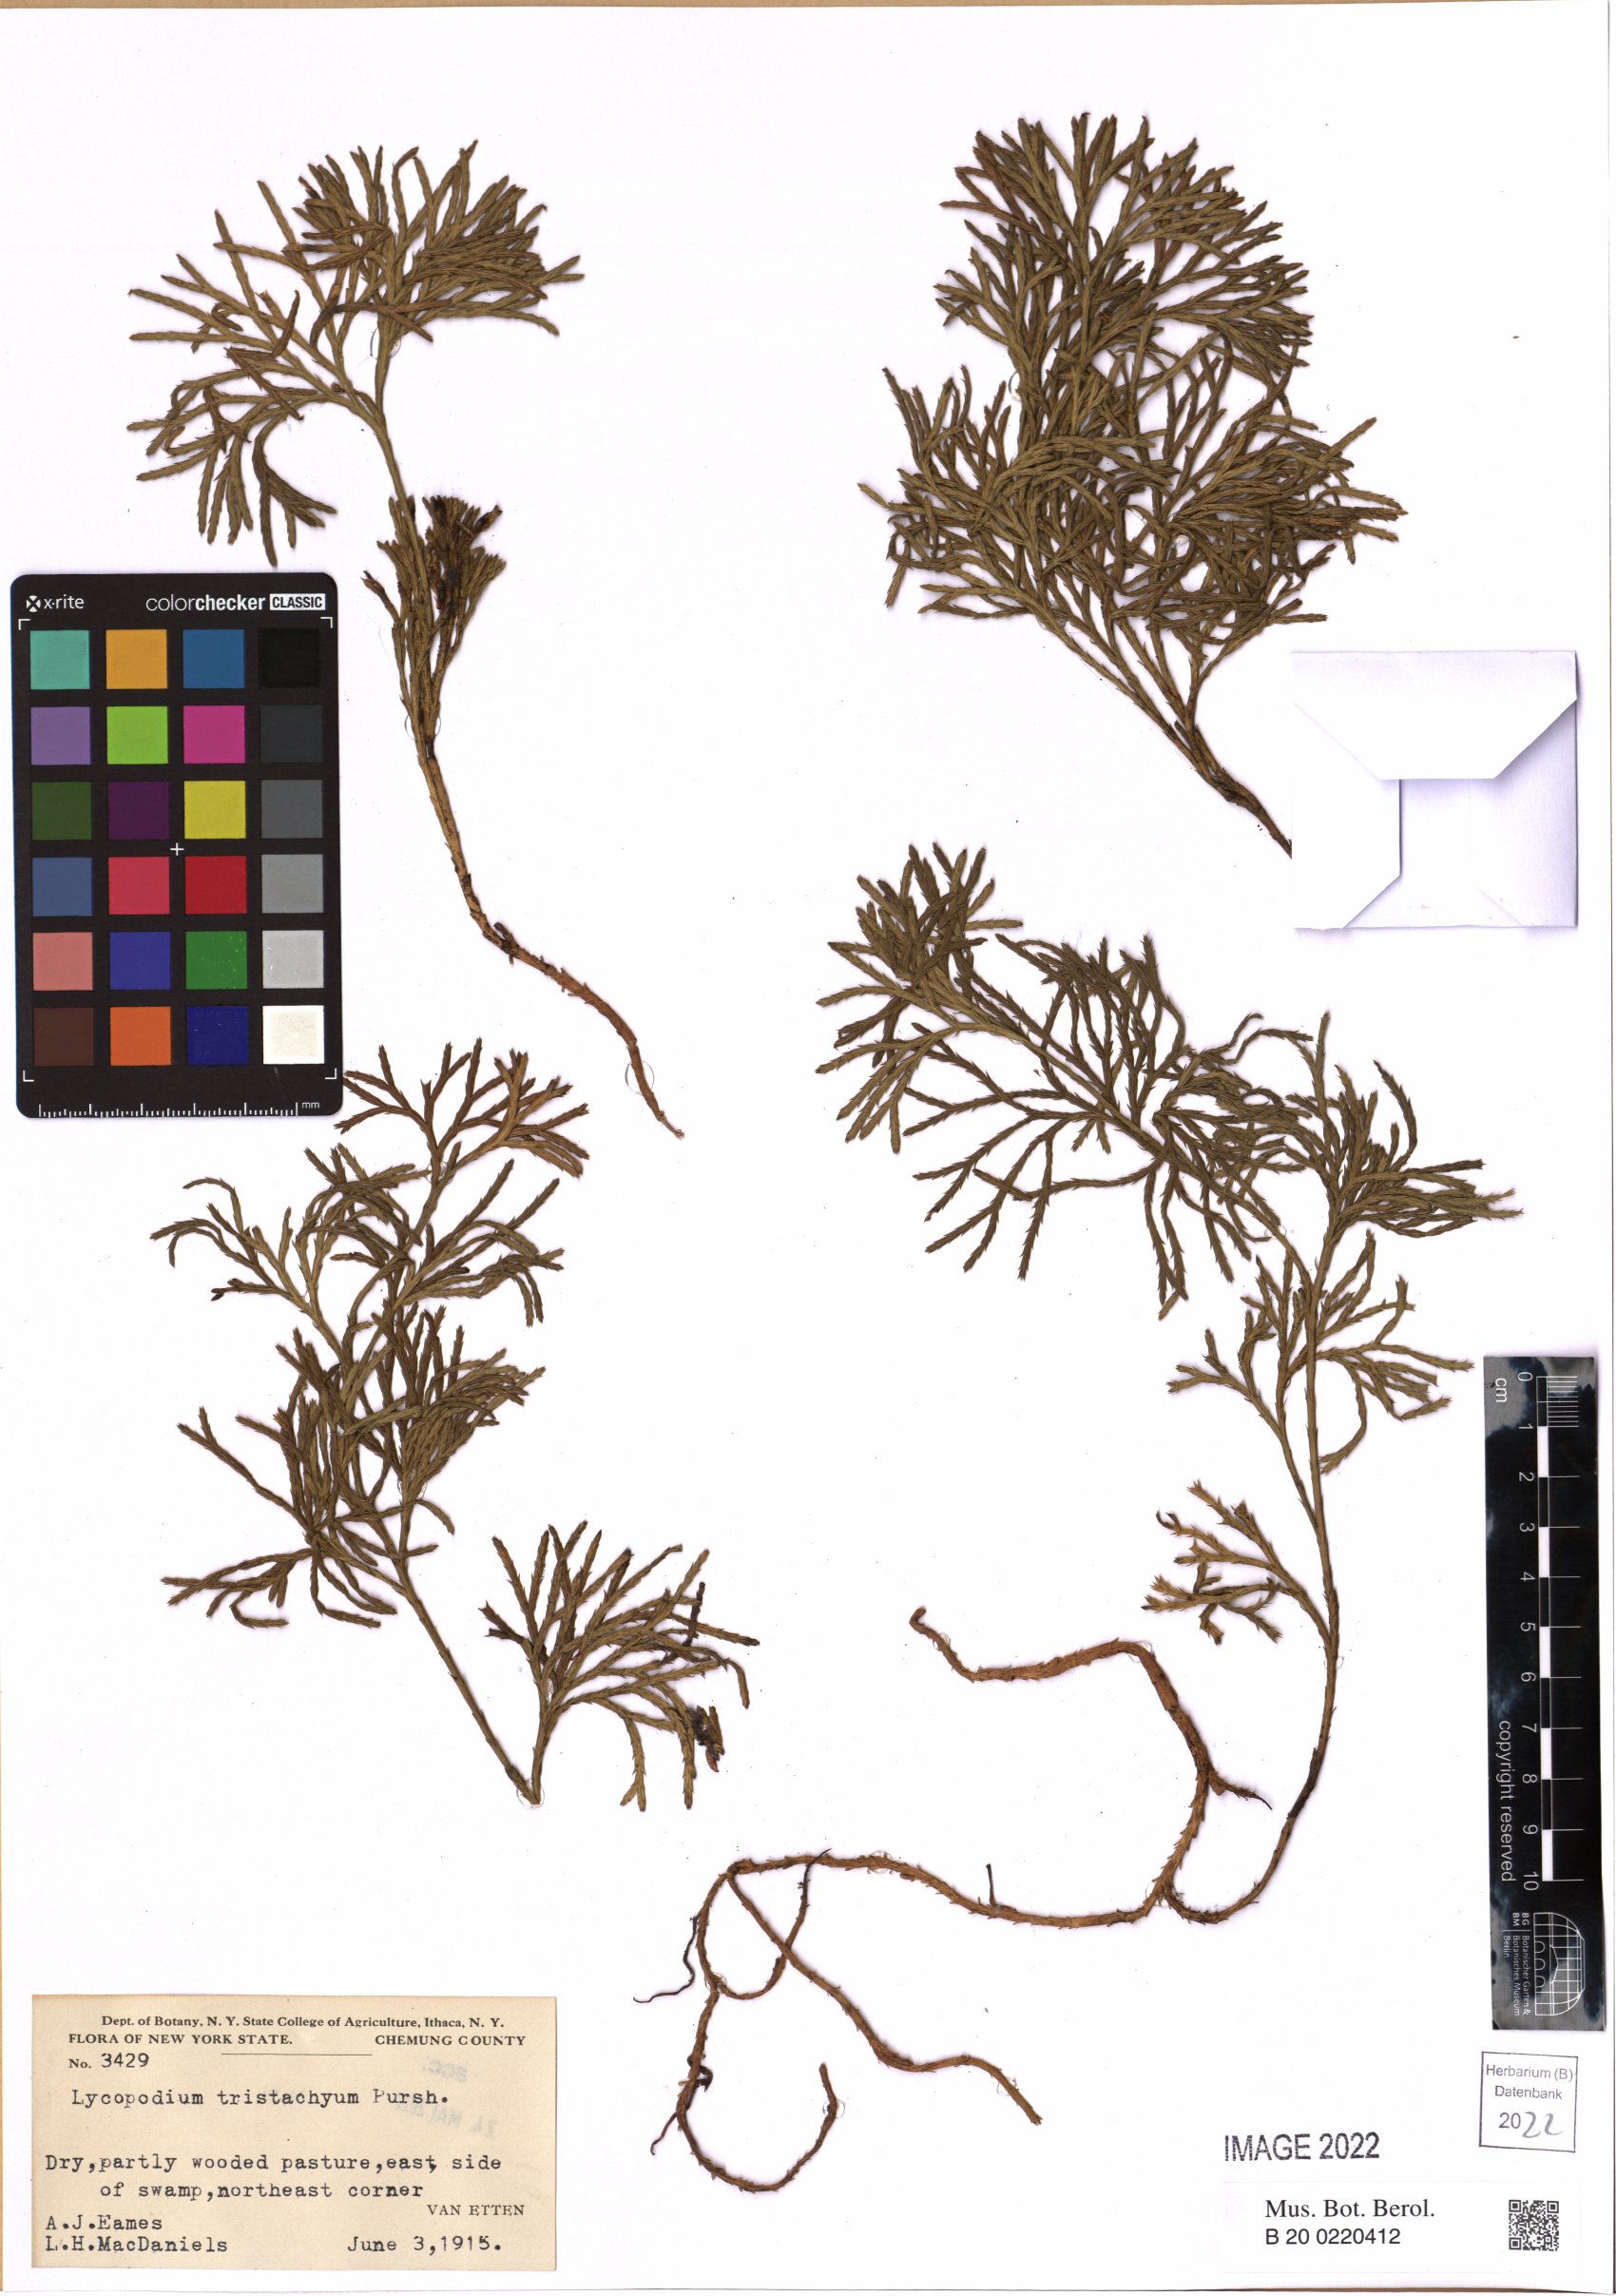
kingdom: Plantae
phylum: Tracheophyta
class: Lycopodiopsida
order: Lycopodiales
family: Lycopodiaceae
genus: Diphasiastrum
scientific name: Diphasiastrum tristachyum
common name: Blue ground-cedar
